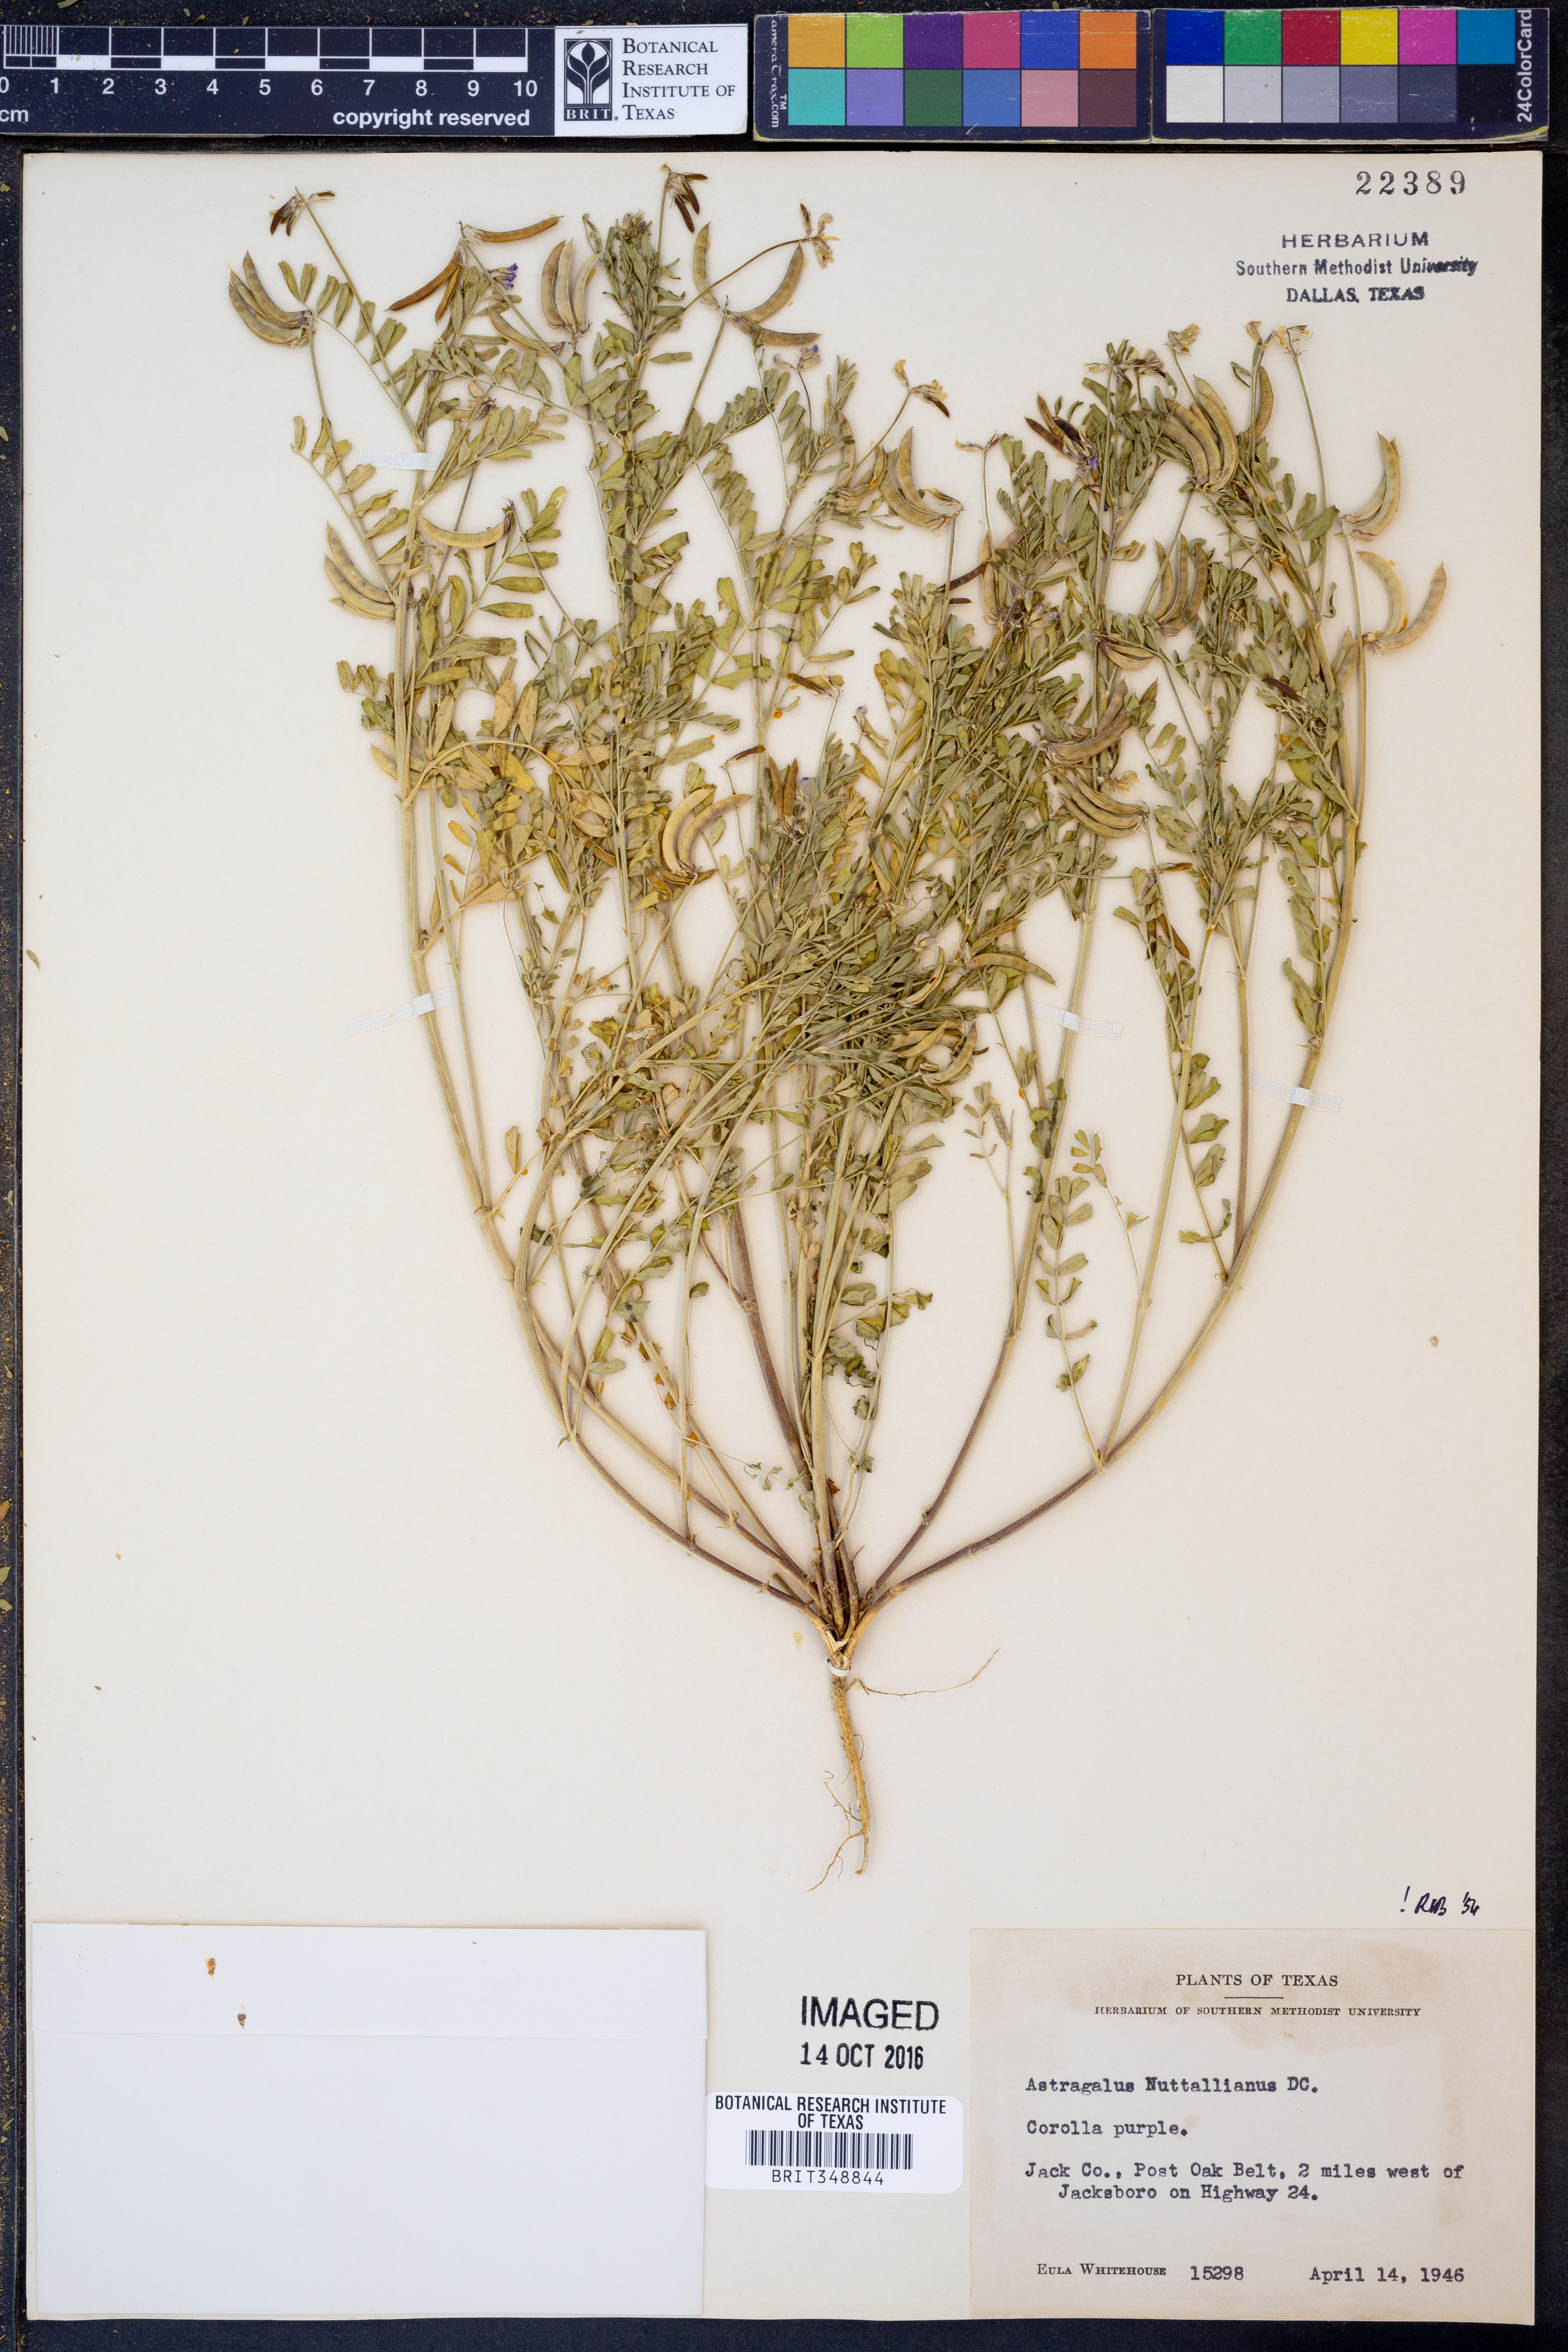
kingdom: Plantae
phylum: Tracheophyta
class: Magnoliopsida
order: Fabales
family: Fabaceae
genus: Astragalus
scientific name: Astragalus nuttallianus
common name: Smallflowered milkvetch
